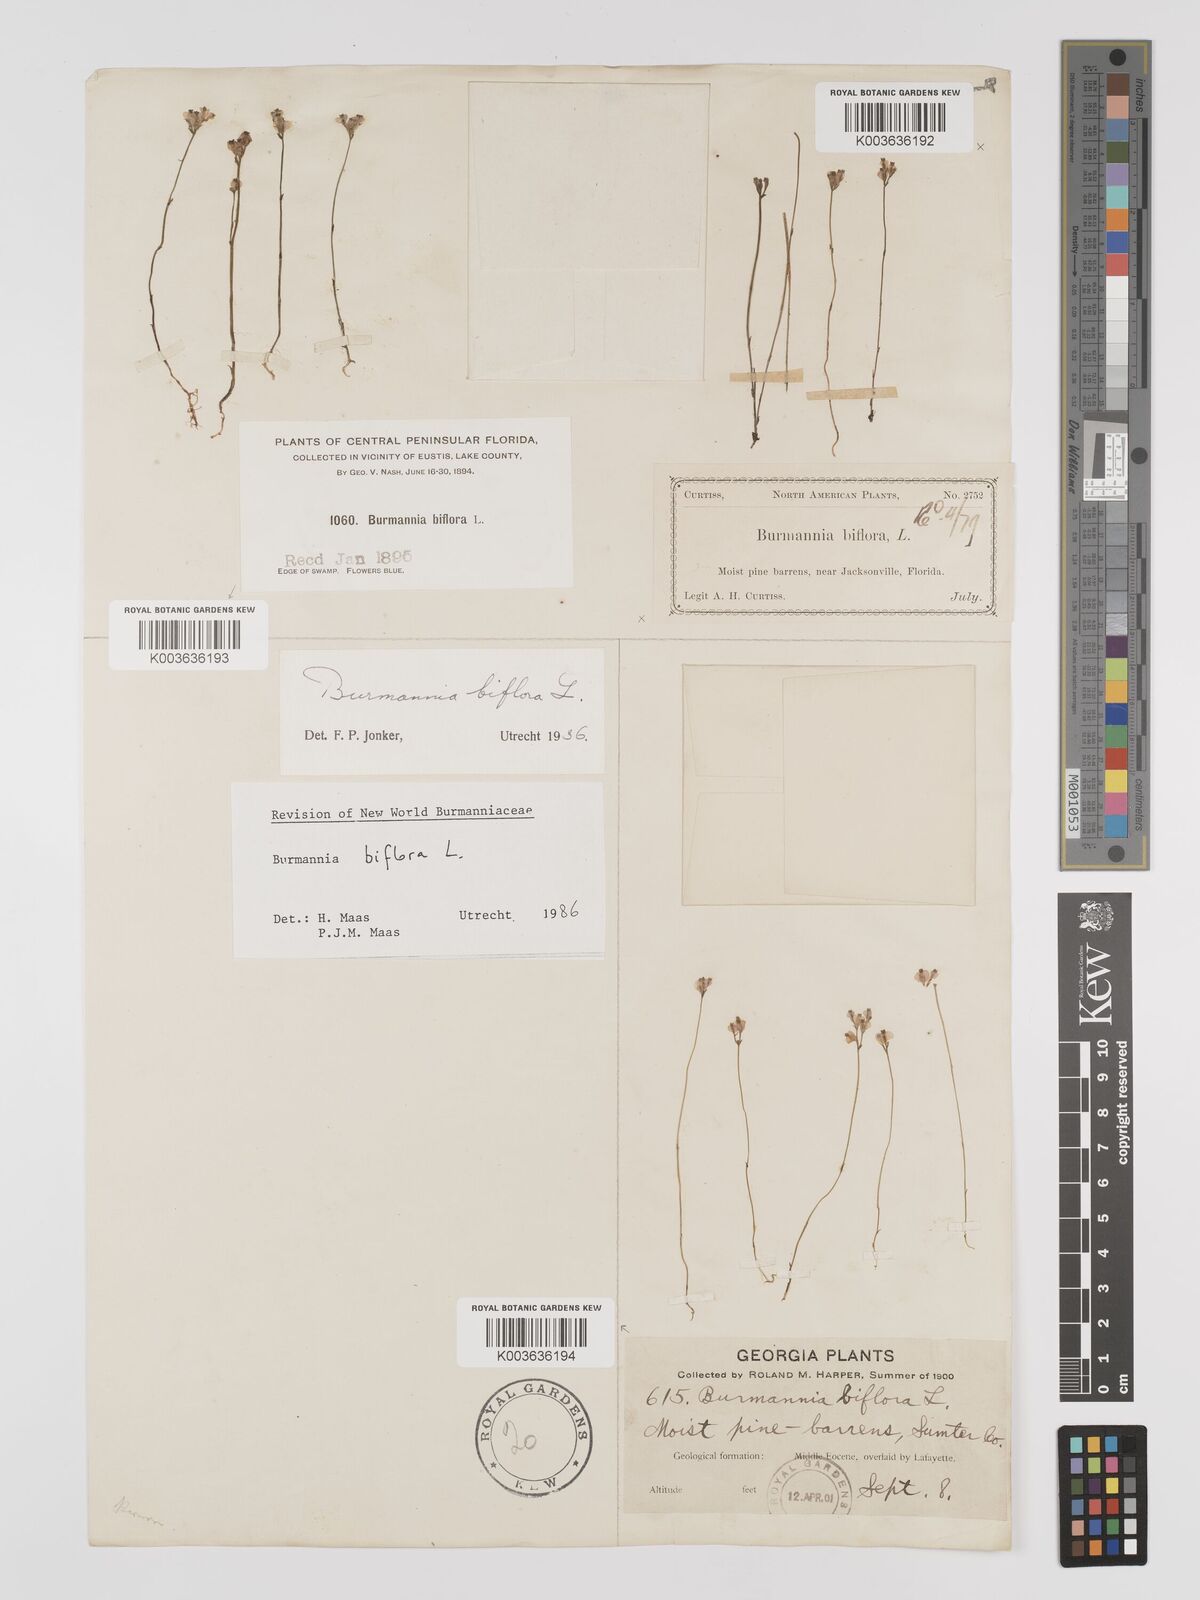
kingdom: Plantae
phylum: Tracheophyta
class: Liliopsida
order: Dioscoreales
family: Burmanniaceae
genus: Burmannia
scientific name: Burmannia biflora
